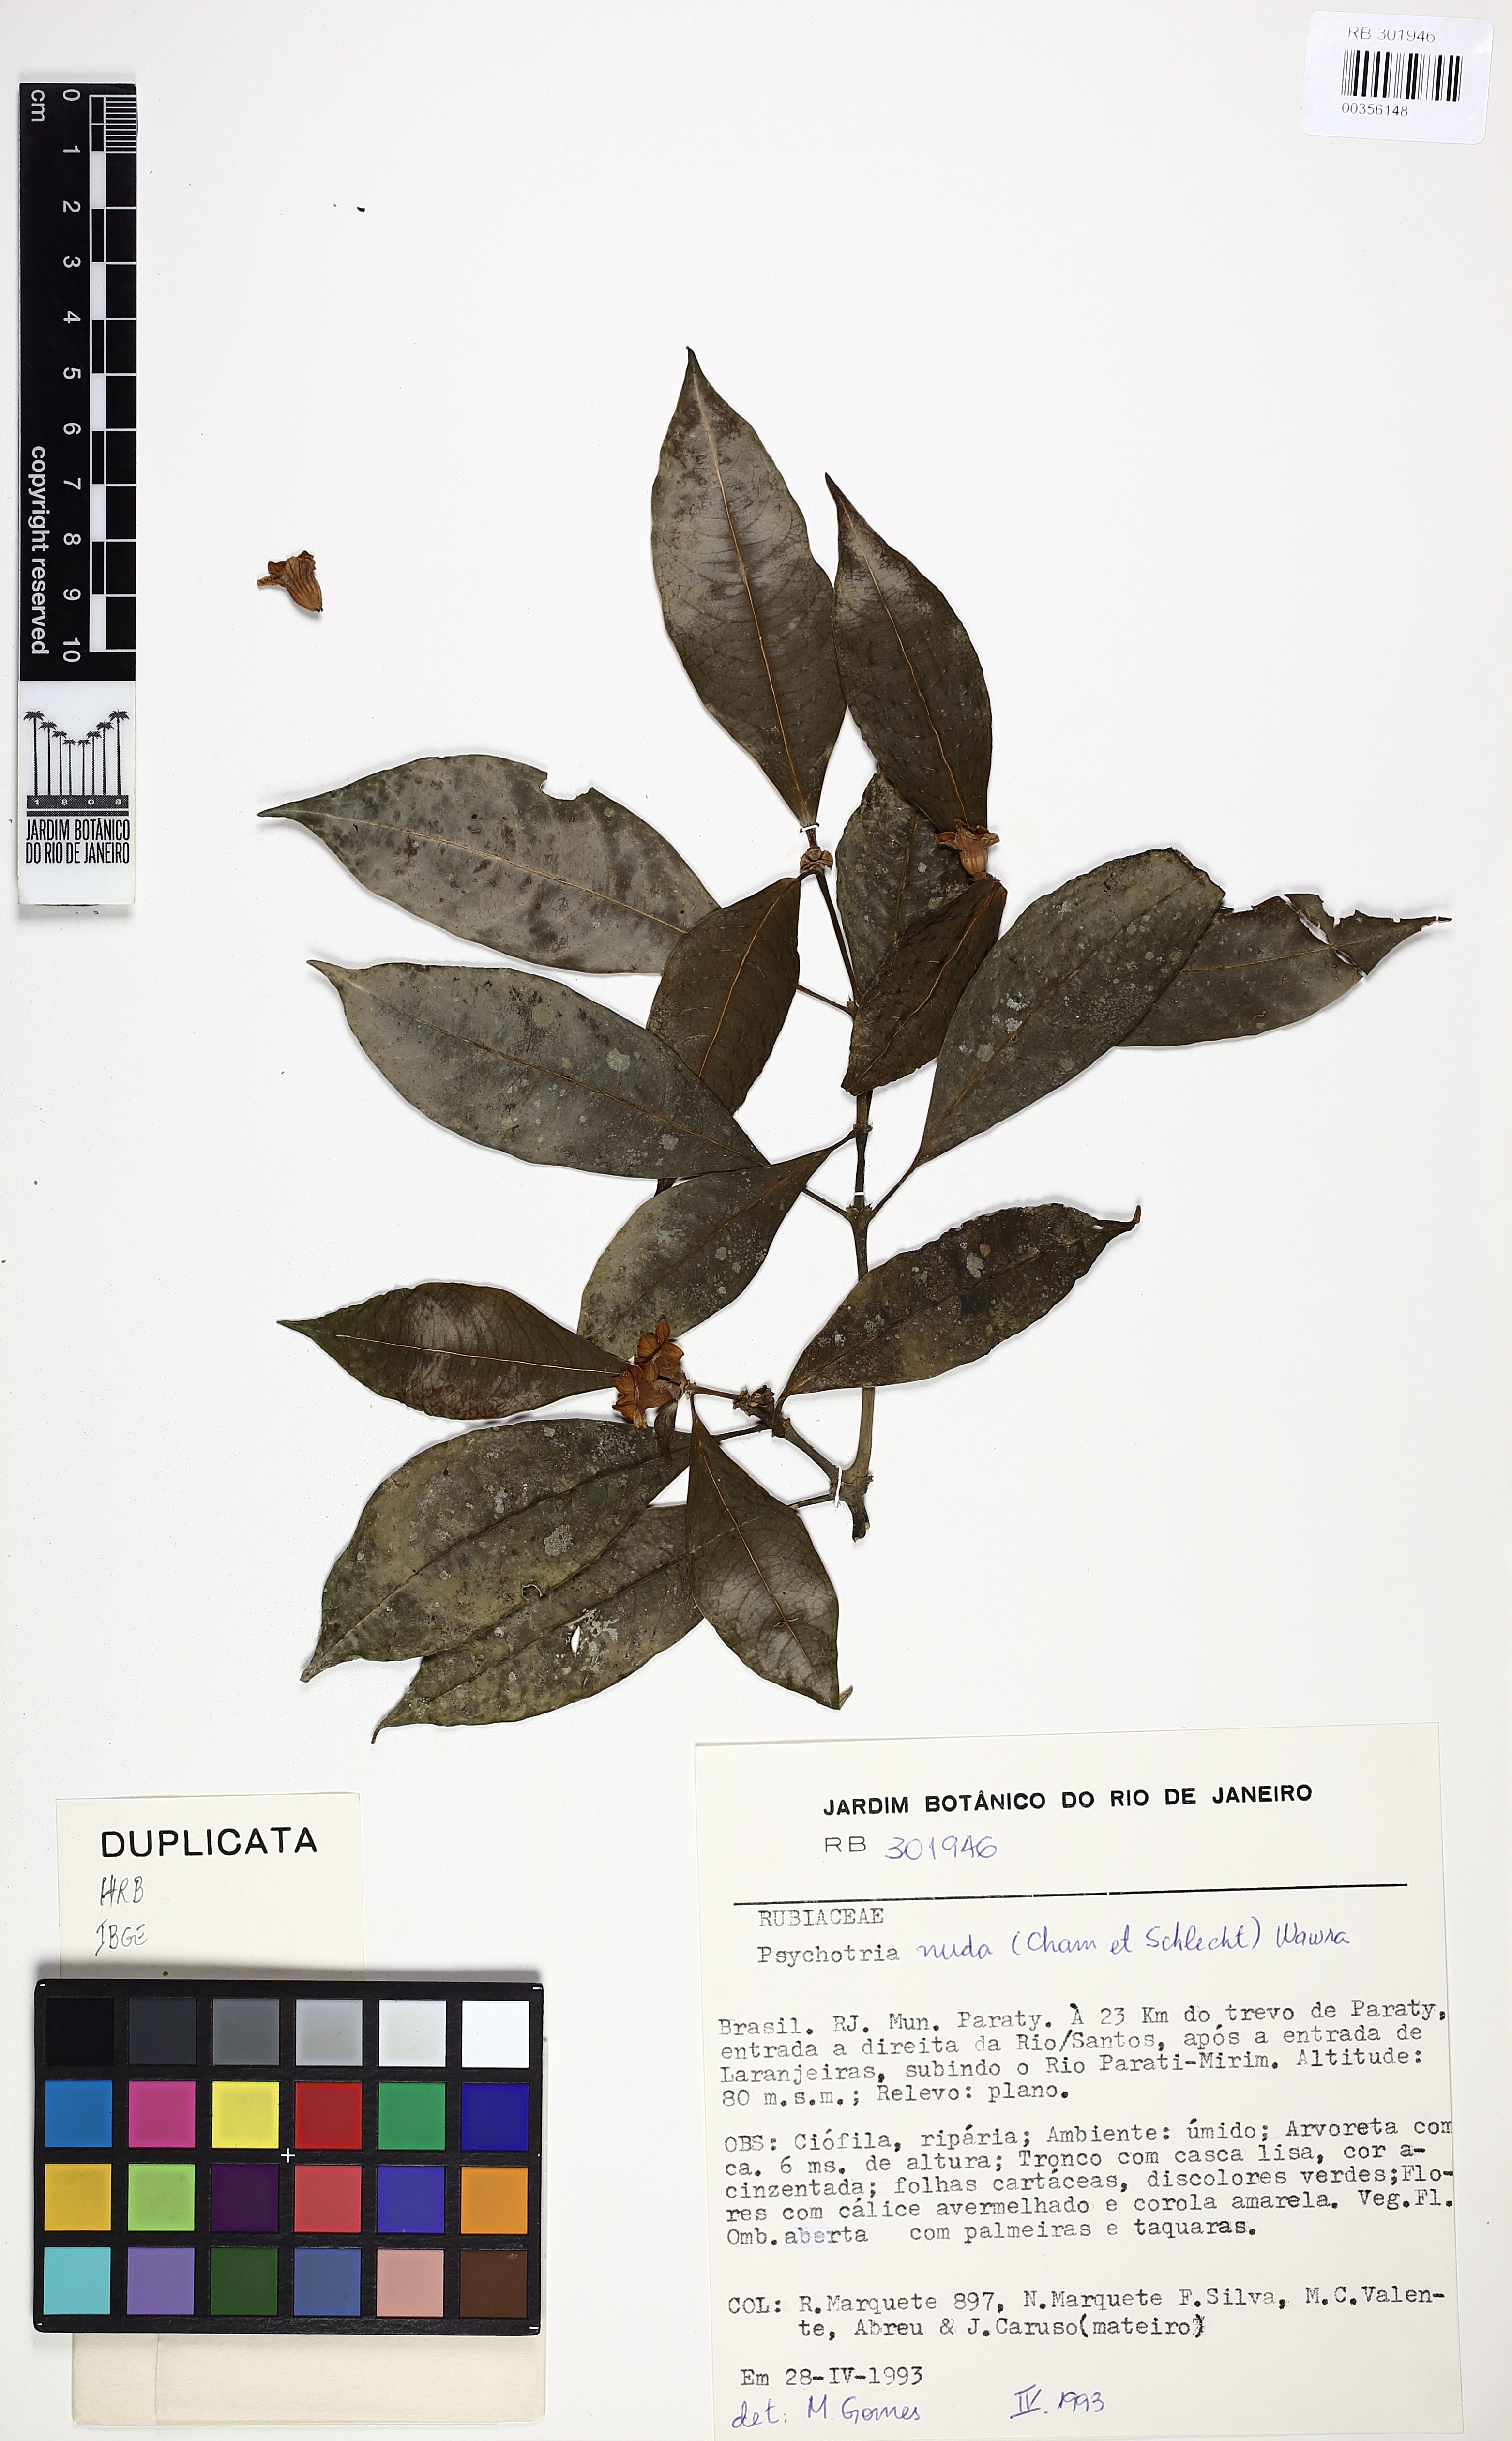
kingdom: Plantae
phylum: Tracheophyta
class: Magnoliopsida
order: Gentianales
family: Rubiaceae
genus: Psychotria
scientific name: Psychotria nuda
